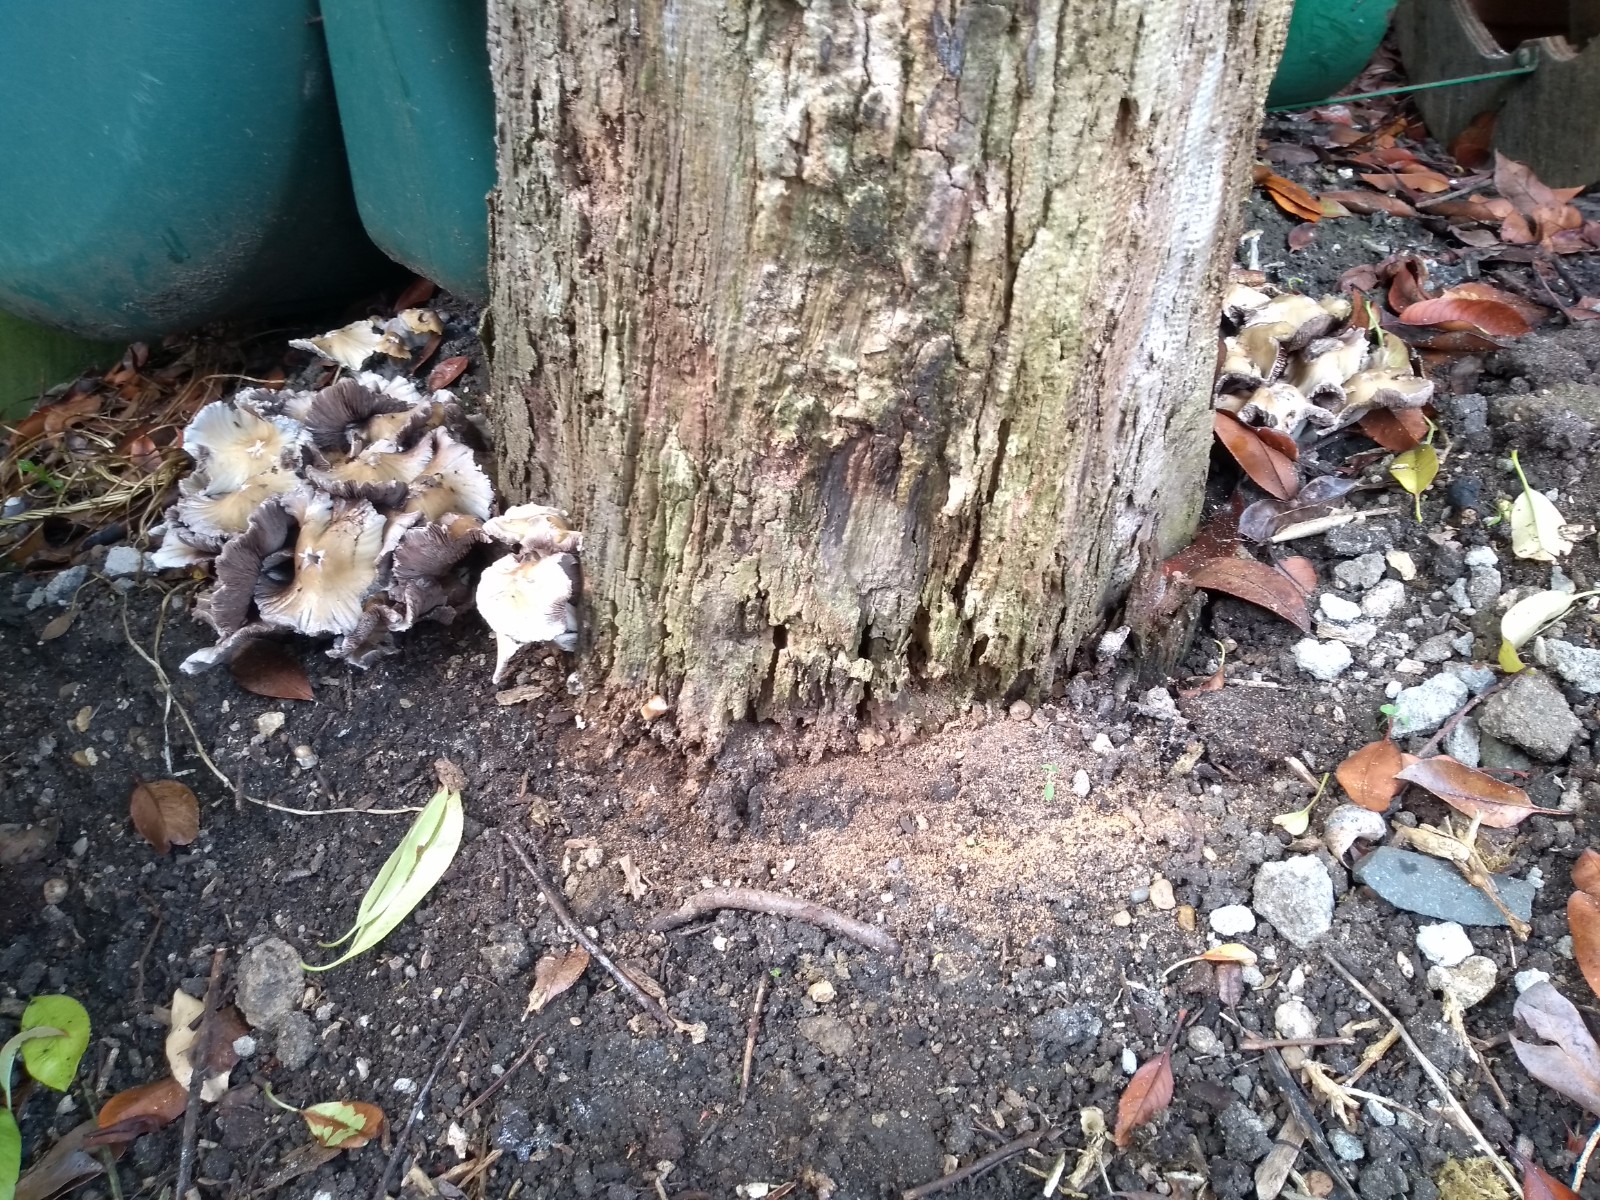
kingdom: Fungi
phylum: Basidiomycota
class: Agaricomycetes
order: Agaricales
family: Psathyrellaceae
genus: Psathyrella
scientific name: Psathyrella
